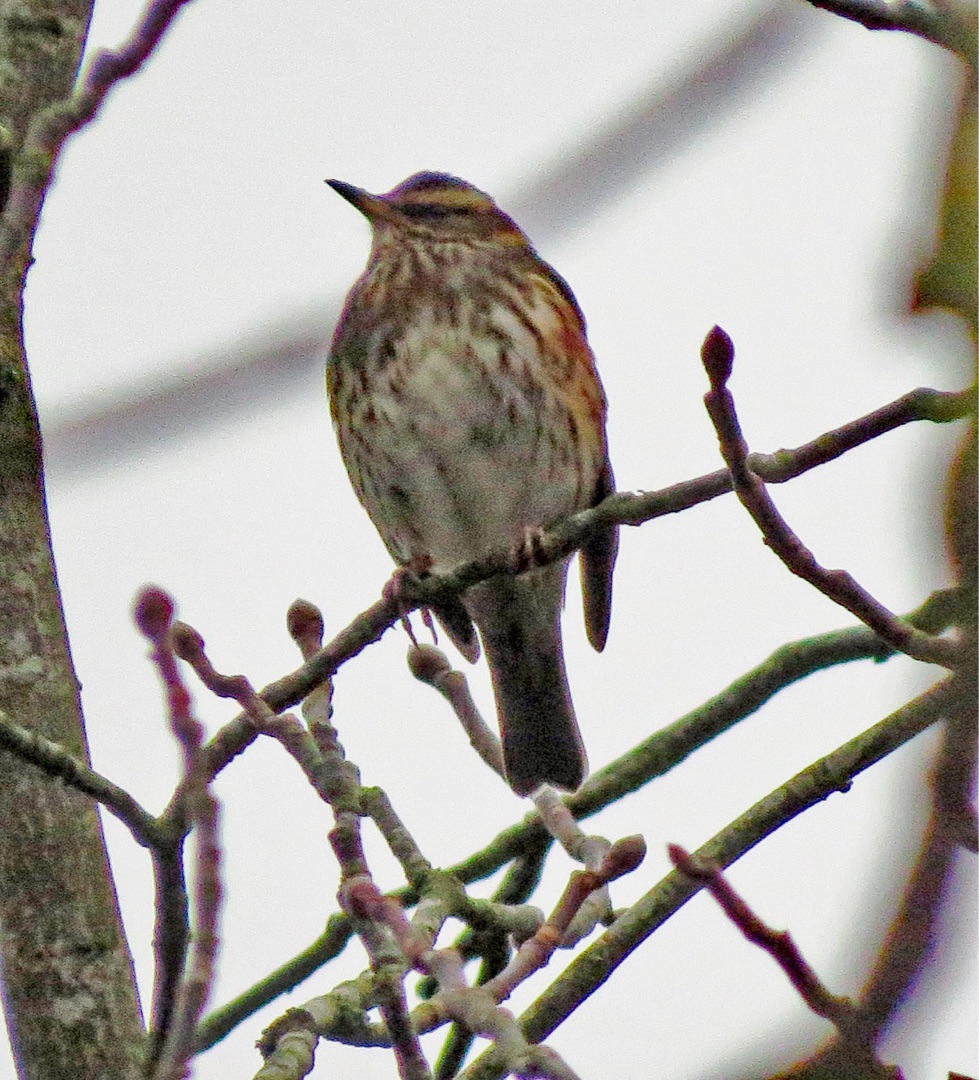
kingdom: Animalia
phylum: Chordata
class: Aves
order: Passeriformes
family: Turdidae
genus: Turdus
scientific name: Turdus iliacus
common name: Vindrossel
